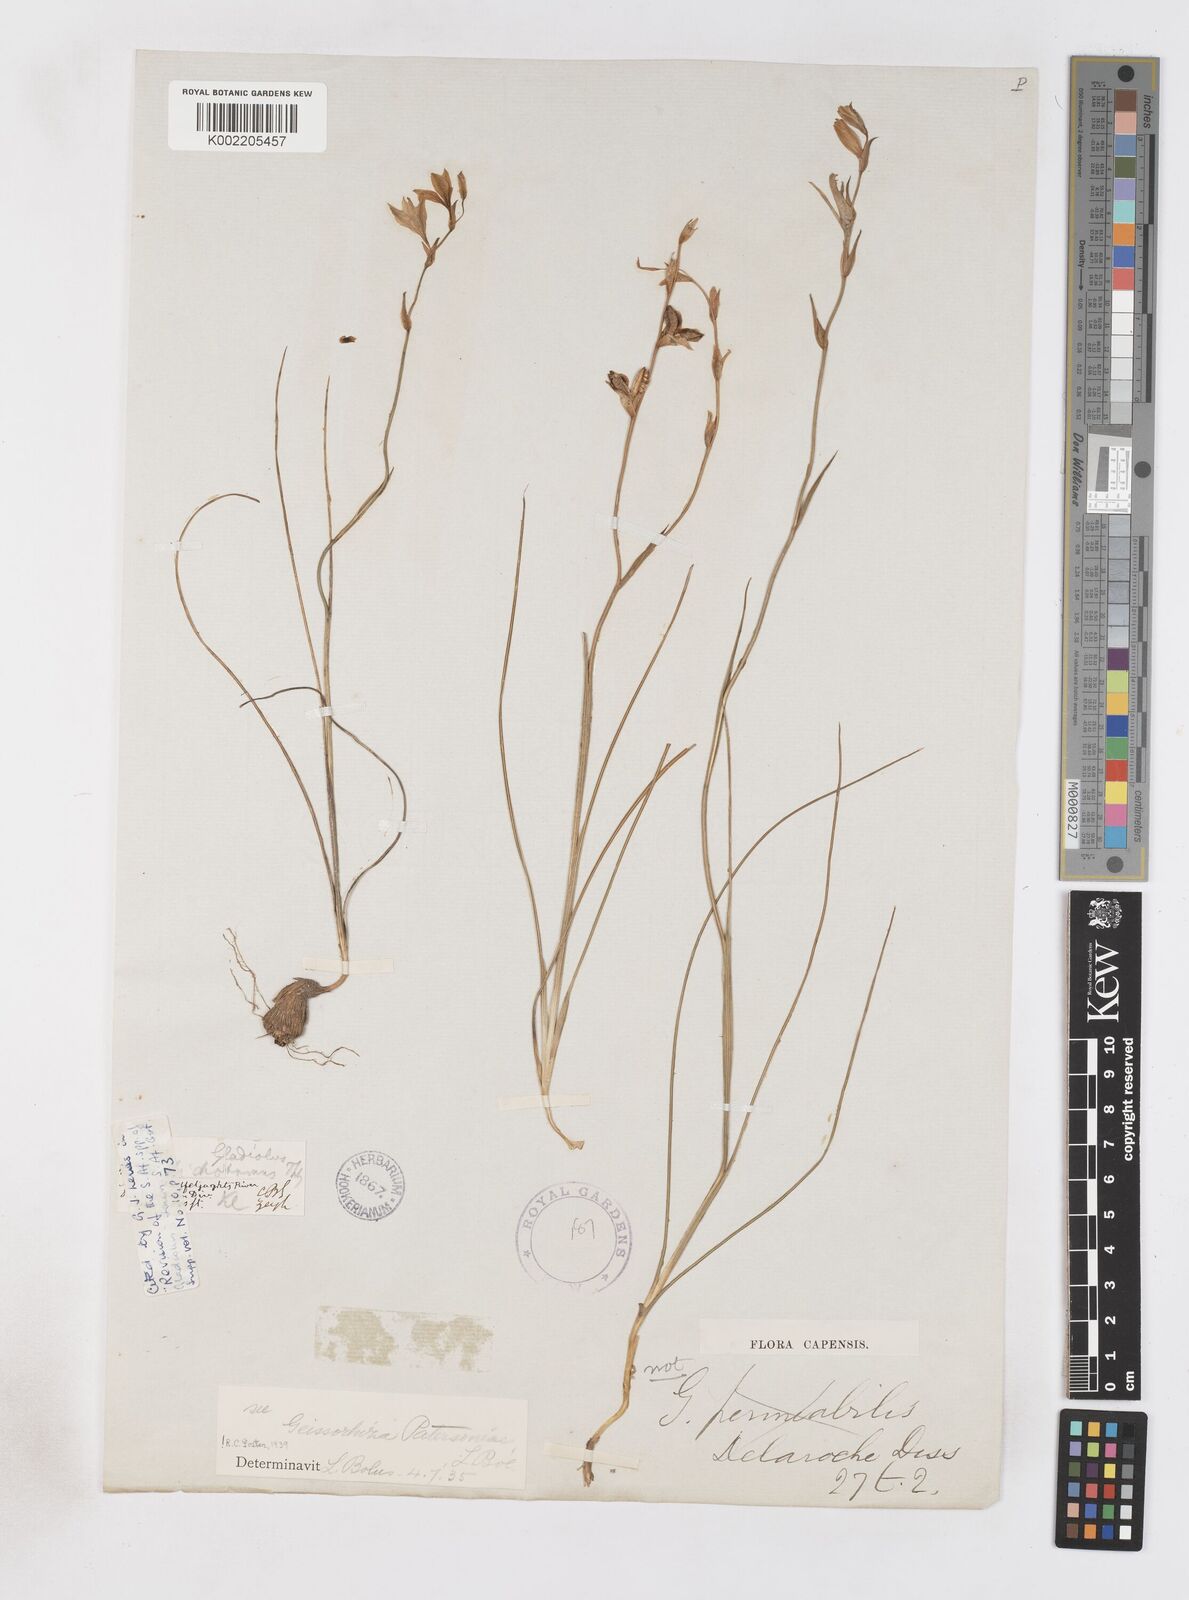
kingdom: Plantae
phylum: Tracheophyta
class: Liliopsida
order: Asparagales
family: Iridaceae
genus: Gladiolus
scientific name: Gladiolus stellatus
